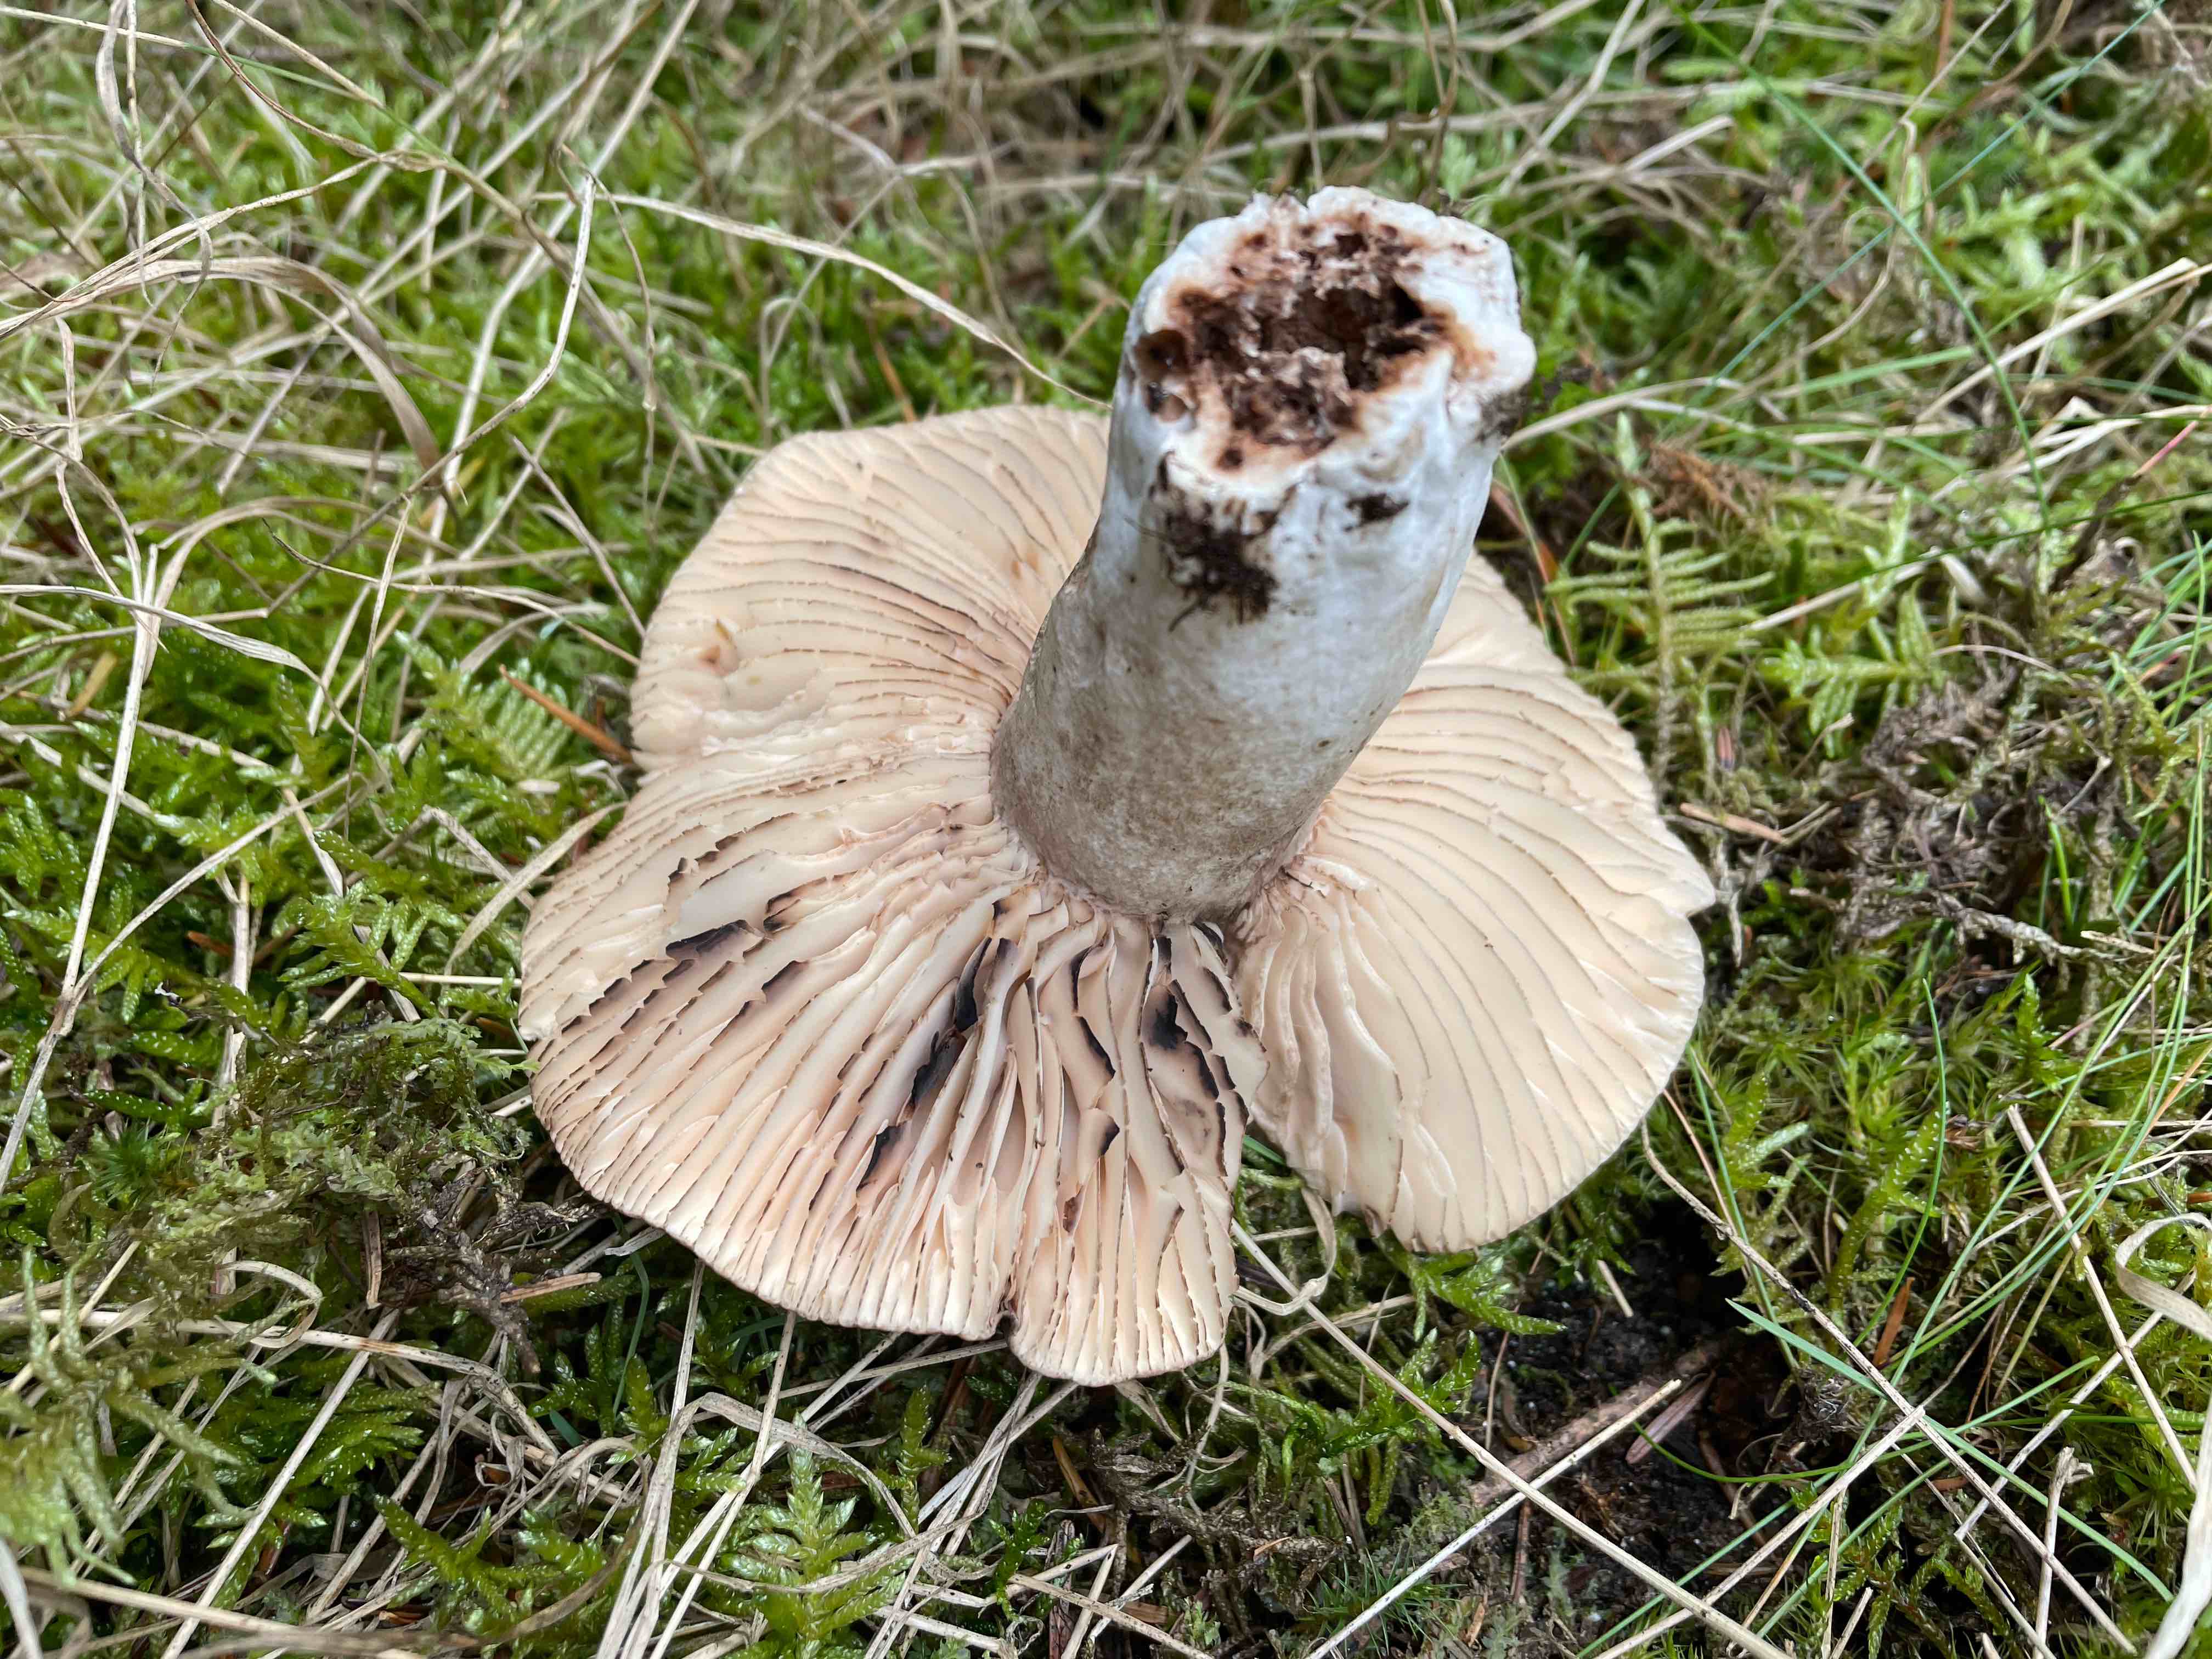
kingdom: Fungi
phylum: Basidiomycota
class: Agaricomycetes
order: Russulales
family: Russulaceae
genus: Russula
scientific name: Russula adusta
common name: sværtende skørhat
